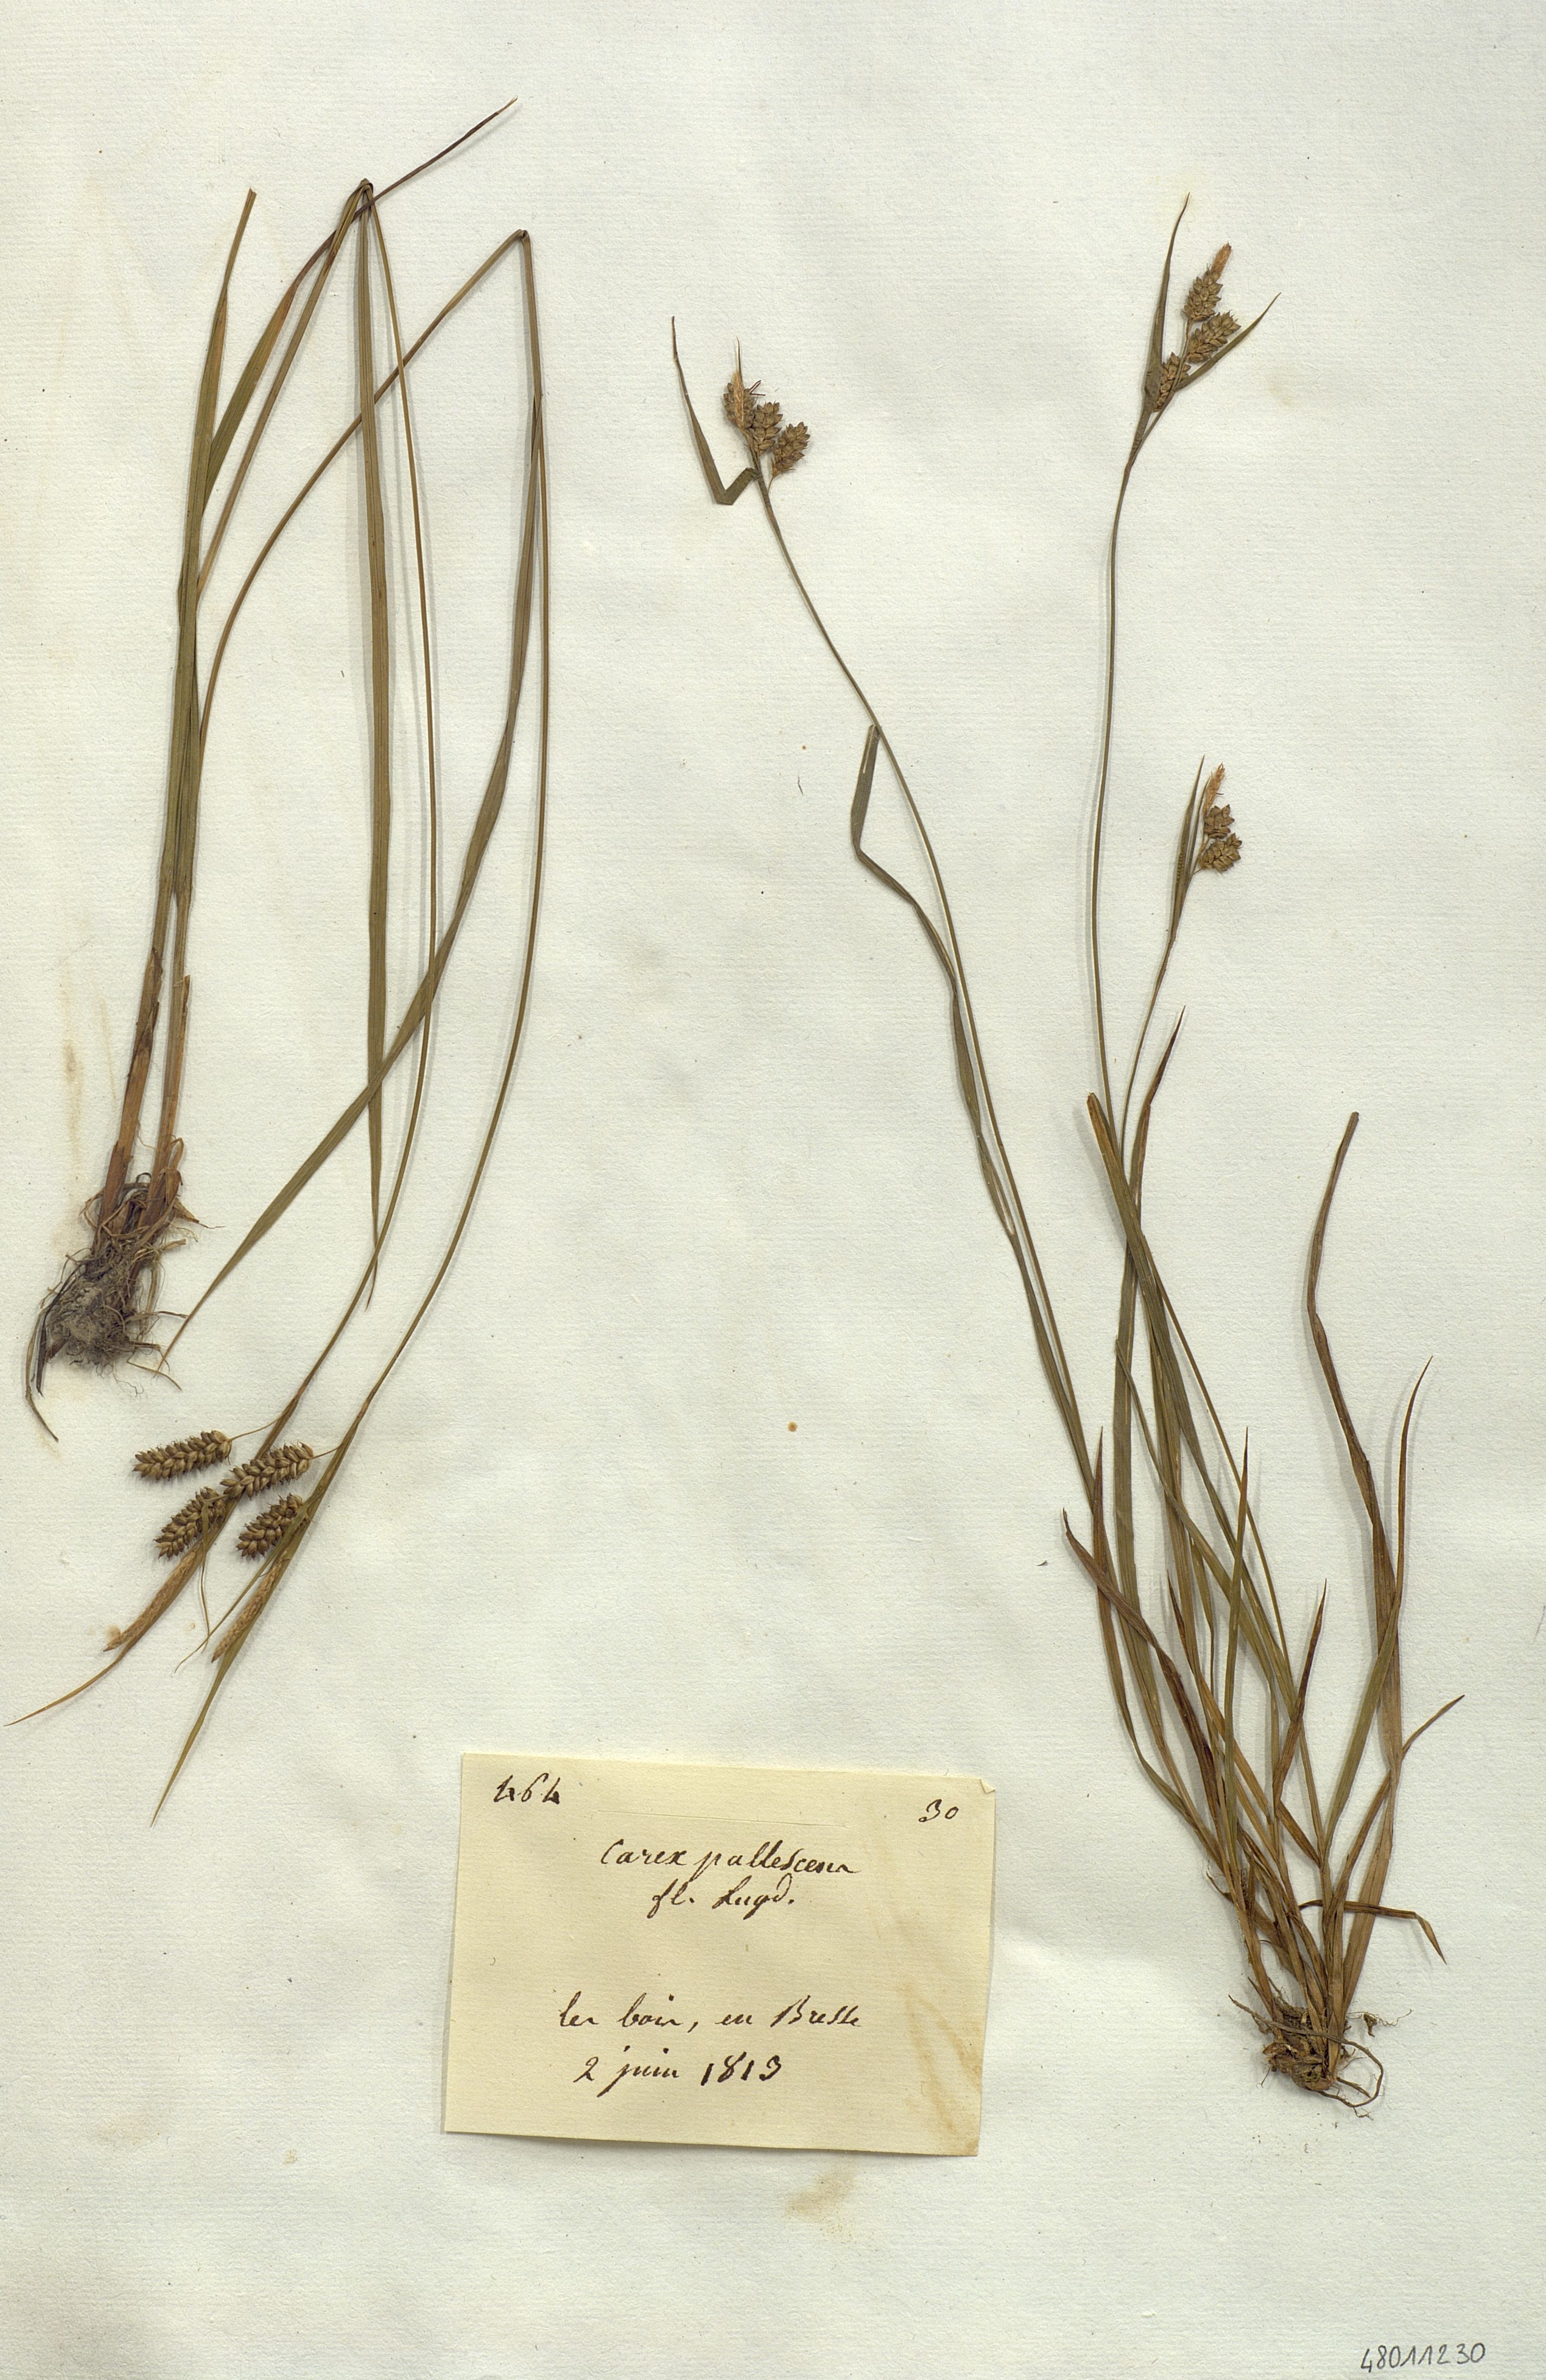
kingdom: Plantae
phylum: Tracheophyta
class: Liliopsida
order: Poales
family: Cyperaceae
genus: Carex
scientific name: Carex pallescens
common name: Pale sedge
